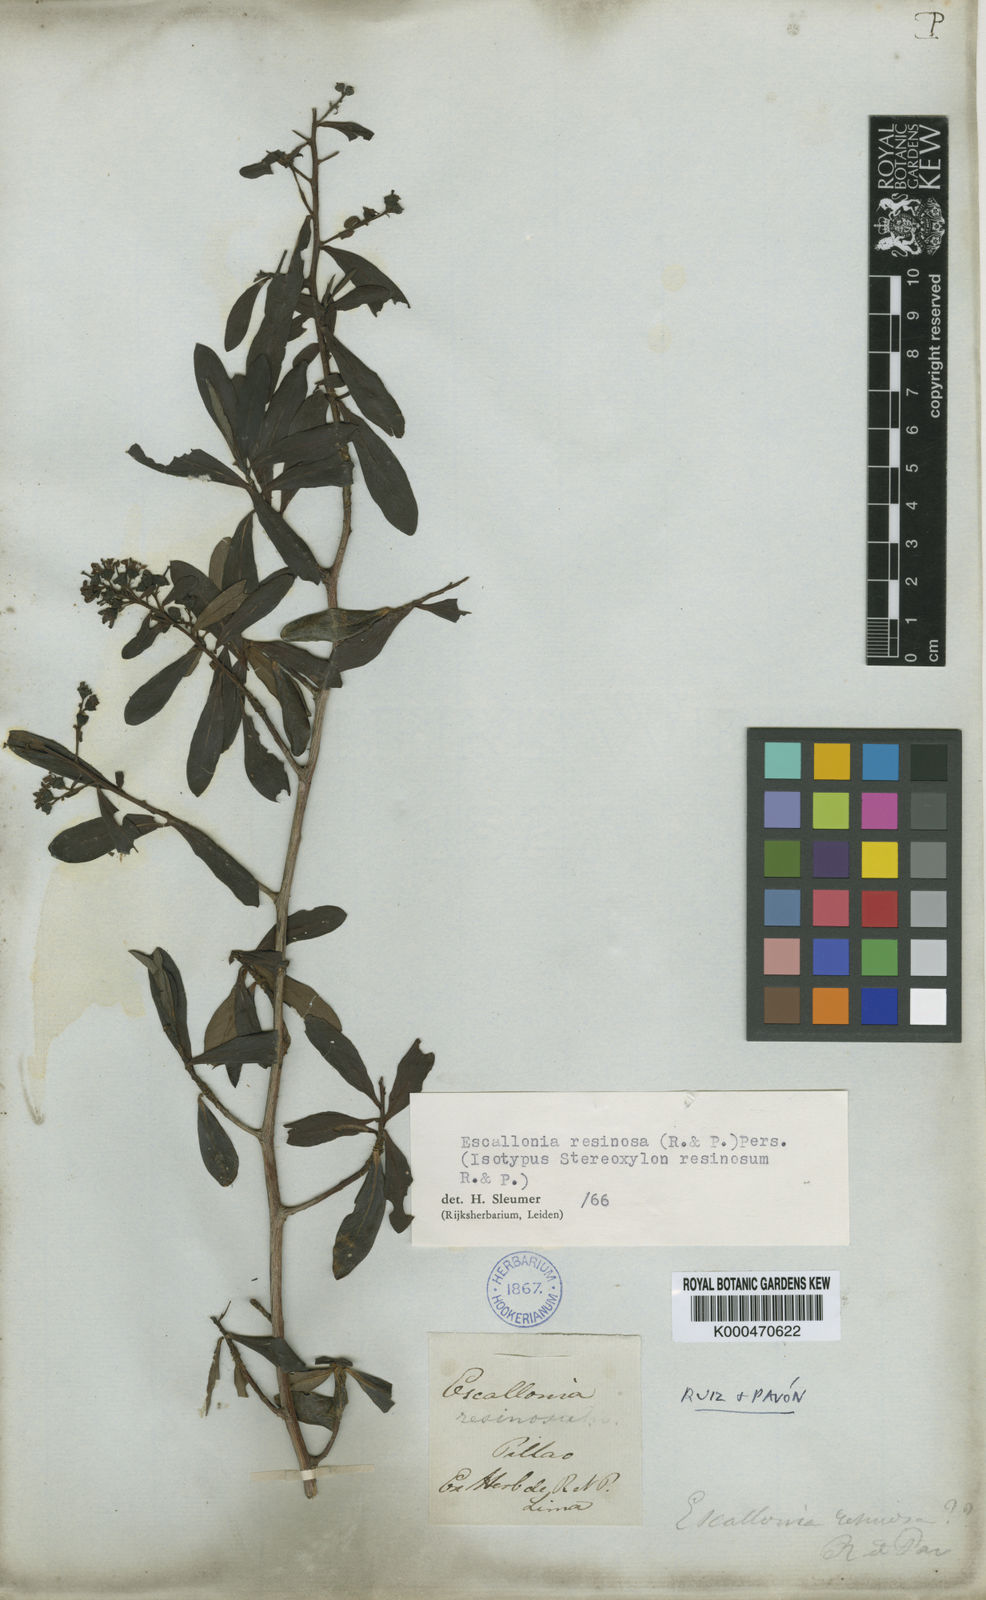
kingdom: Plantae
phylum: Tracheophyta
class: Magnoliopsida
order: Escalloniales
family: Escalloniaceae
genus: Escallonia
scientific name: Escallonia resinosa
